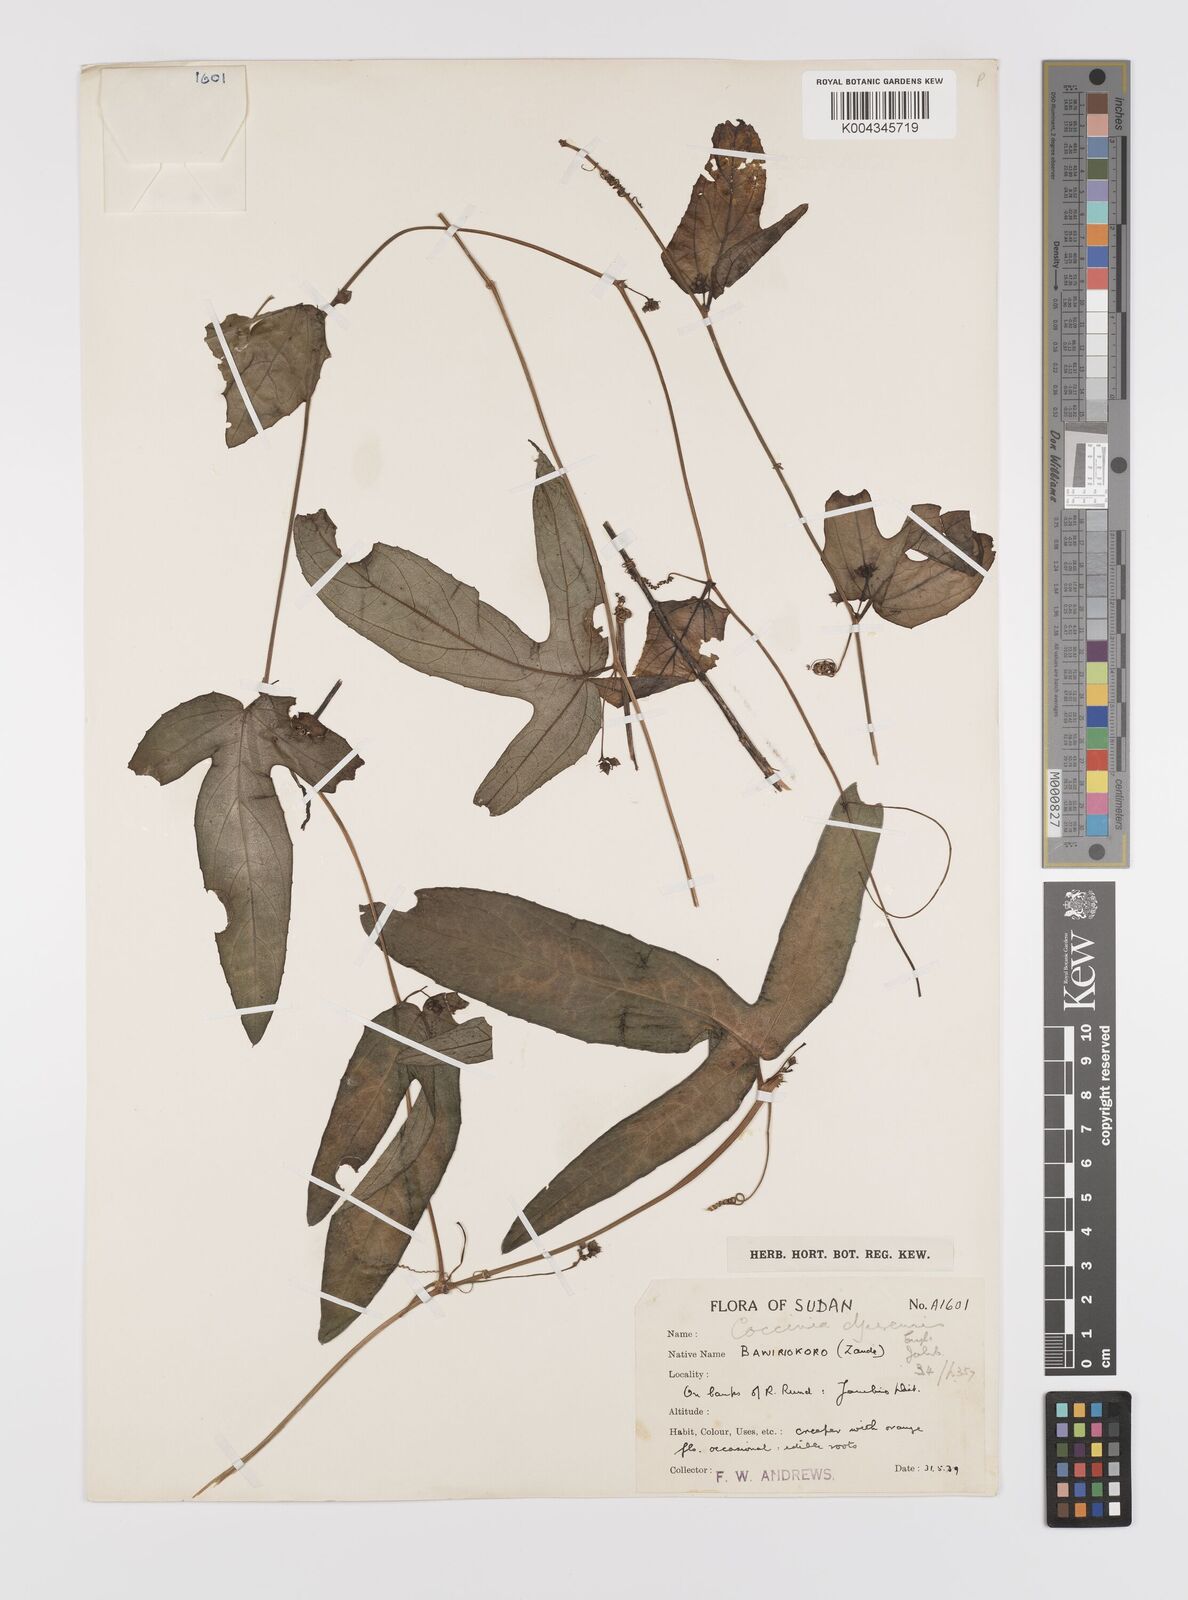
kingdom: Plantae
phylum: Tracheophyta
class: Magnoliopsida
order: Cucurbitales
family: Cucurbitaceae
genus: Coccinia
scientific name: Coccinia adoensis
